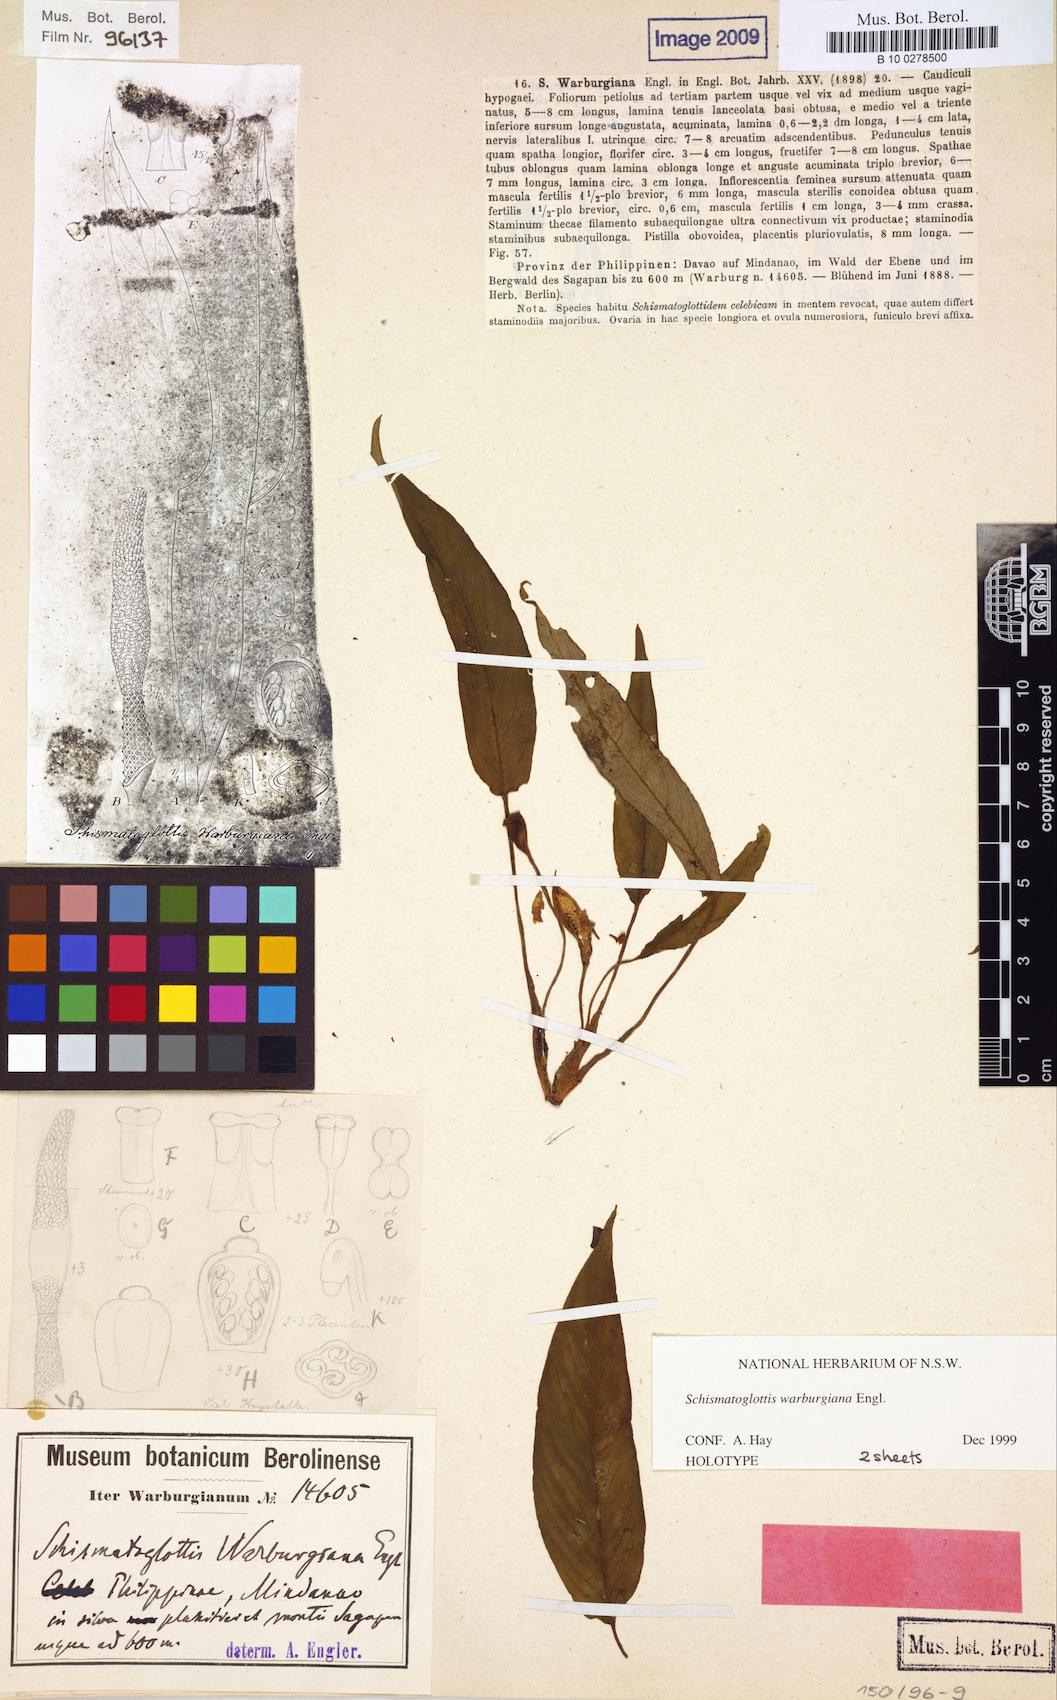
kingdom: Plantae
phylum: Tracheophyta
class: Liliopsida
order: Alismatales
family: Araceae
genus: Schismatoglottis
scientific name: Schismatoglottis warburgiana
